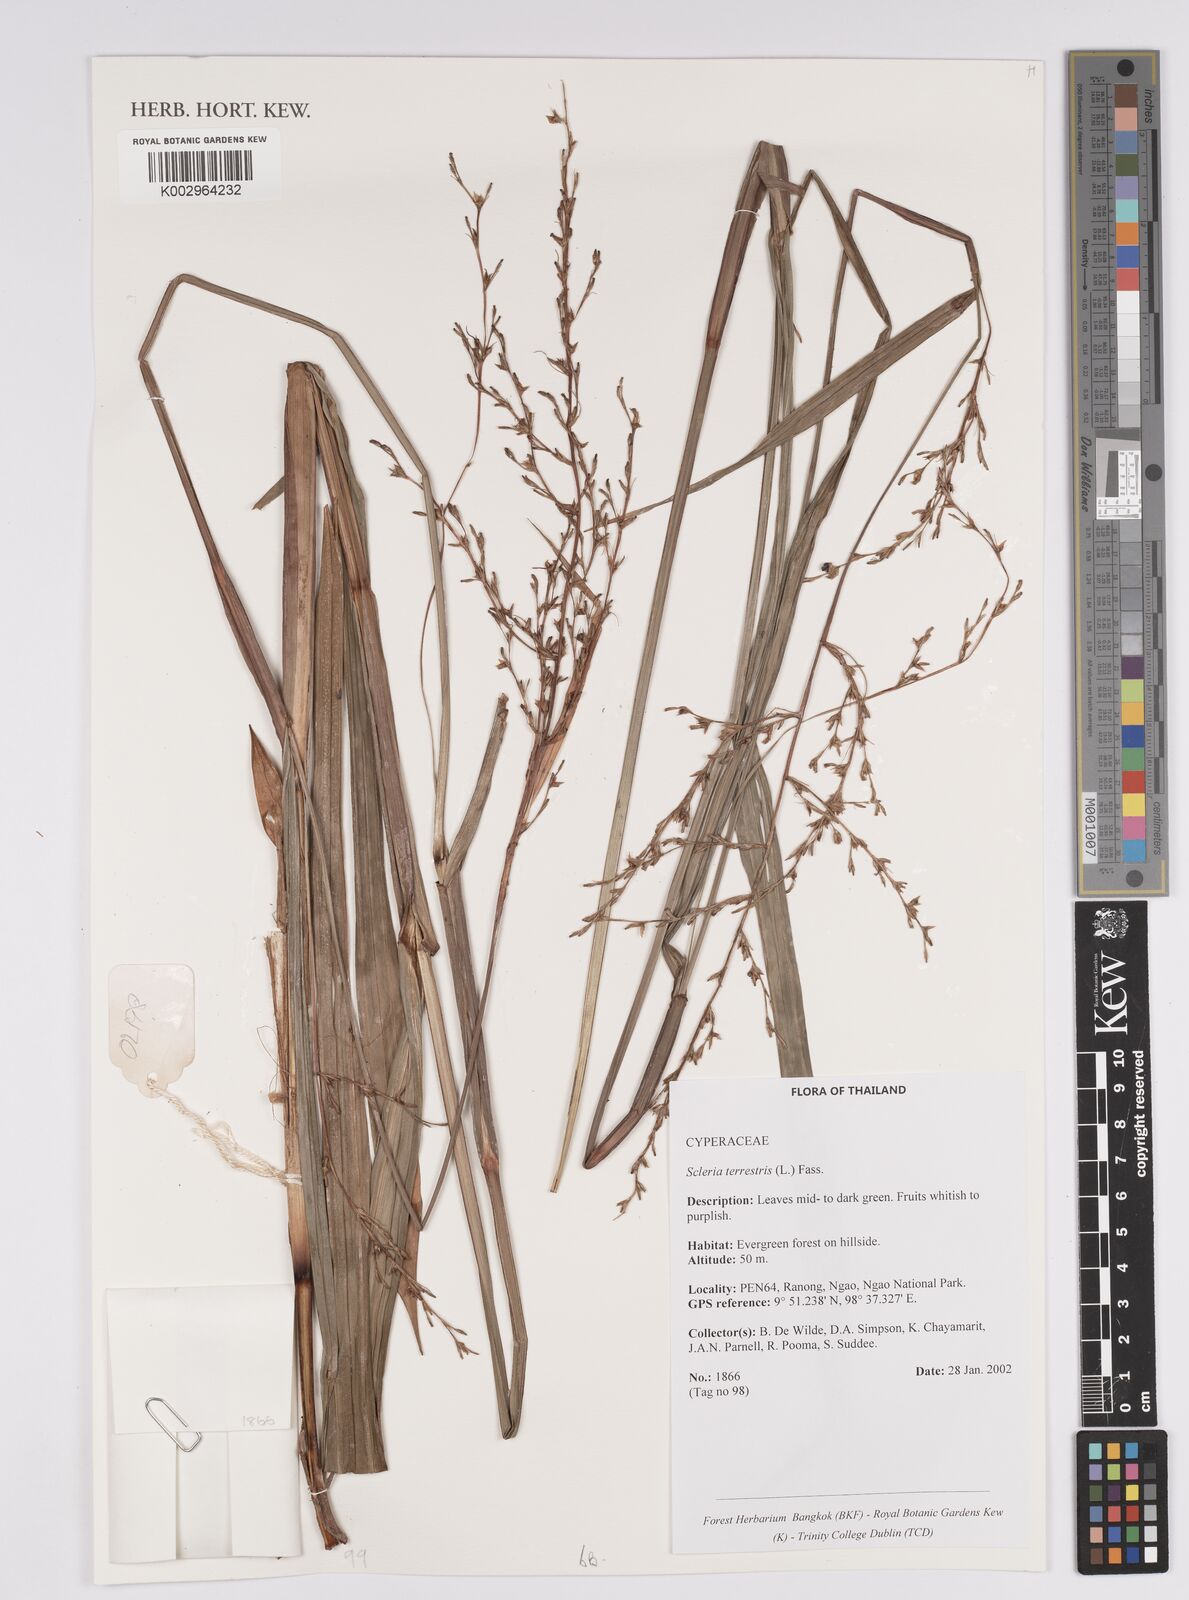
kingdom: Plantae
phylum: Tracheophyta
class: Liliopsida
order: Poales
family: Cyperaceae
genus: Scleria
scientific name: Scleria terrestris
